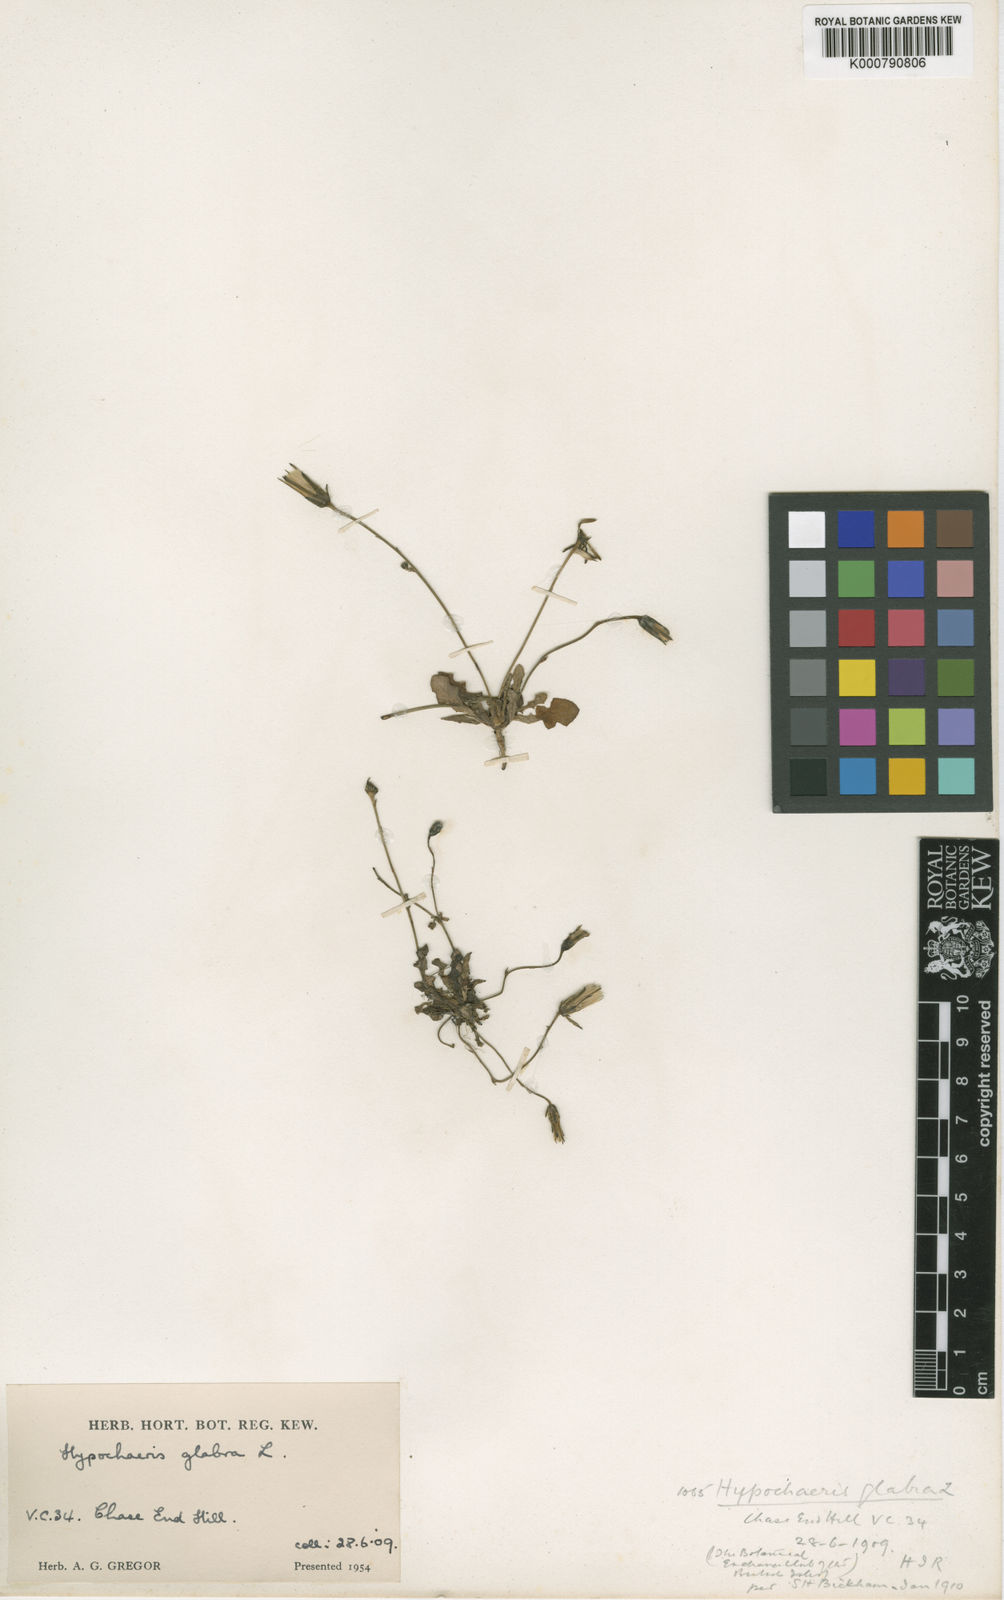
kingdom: Plantae
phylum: Tracheophyta
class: Magnoliopsida
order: Asterales
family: Asteraceae
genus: Hypochaeris
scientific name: Hypochaeris glabra
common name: Smooth catsear
